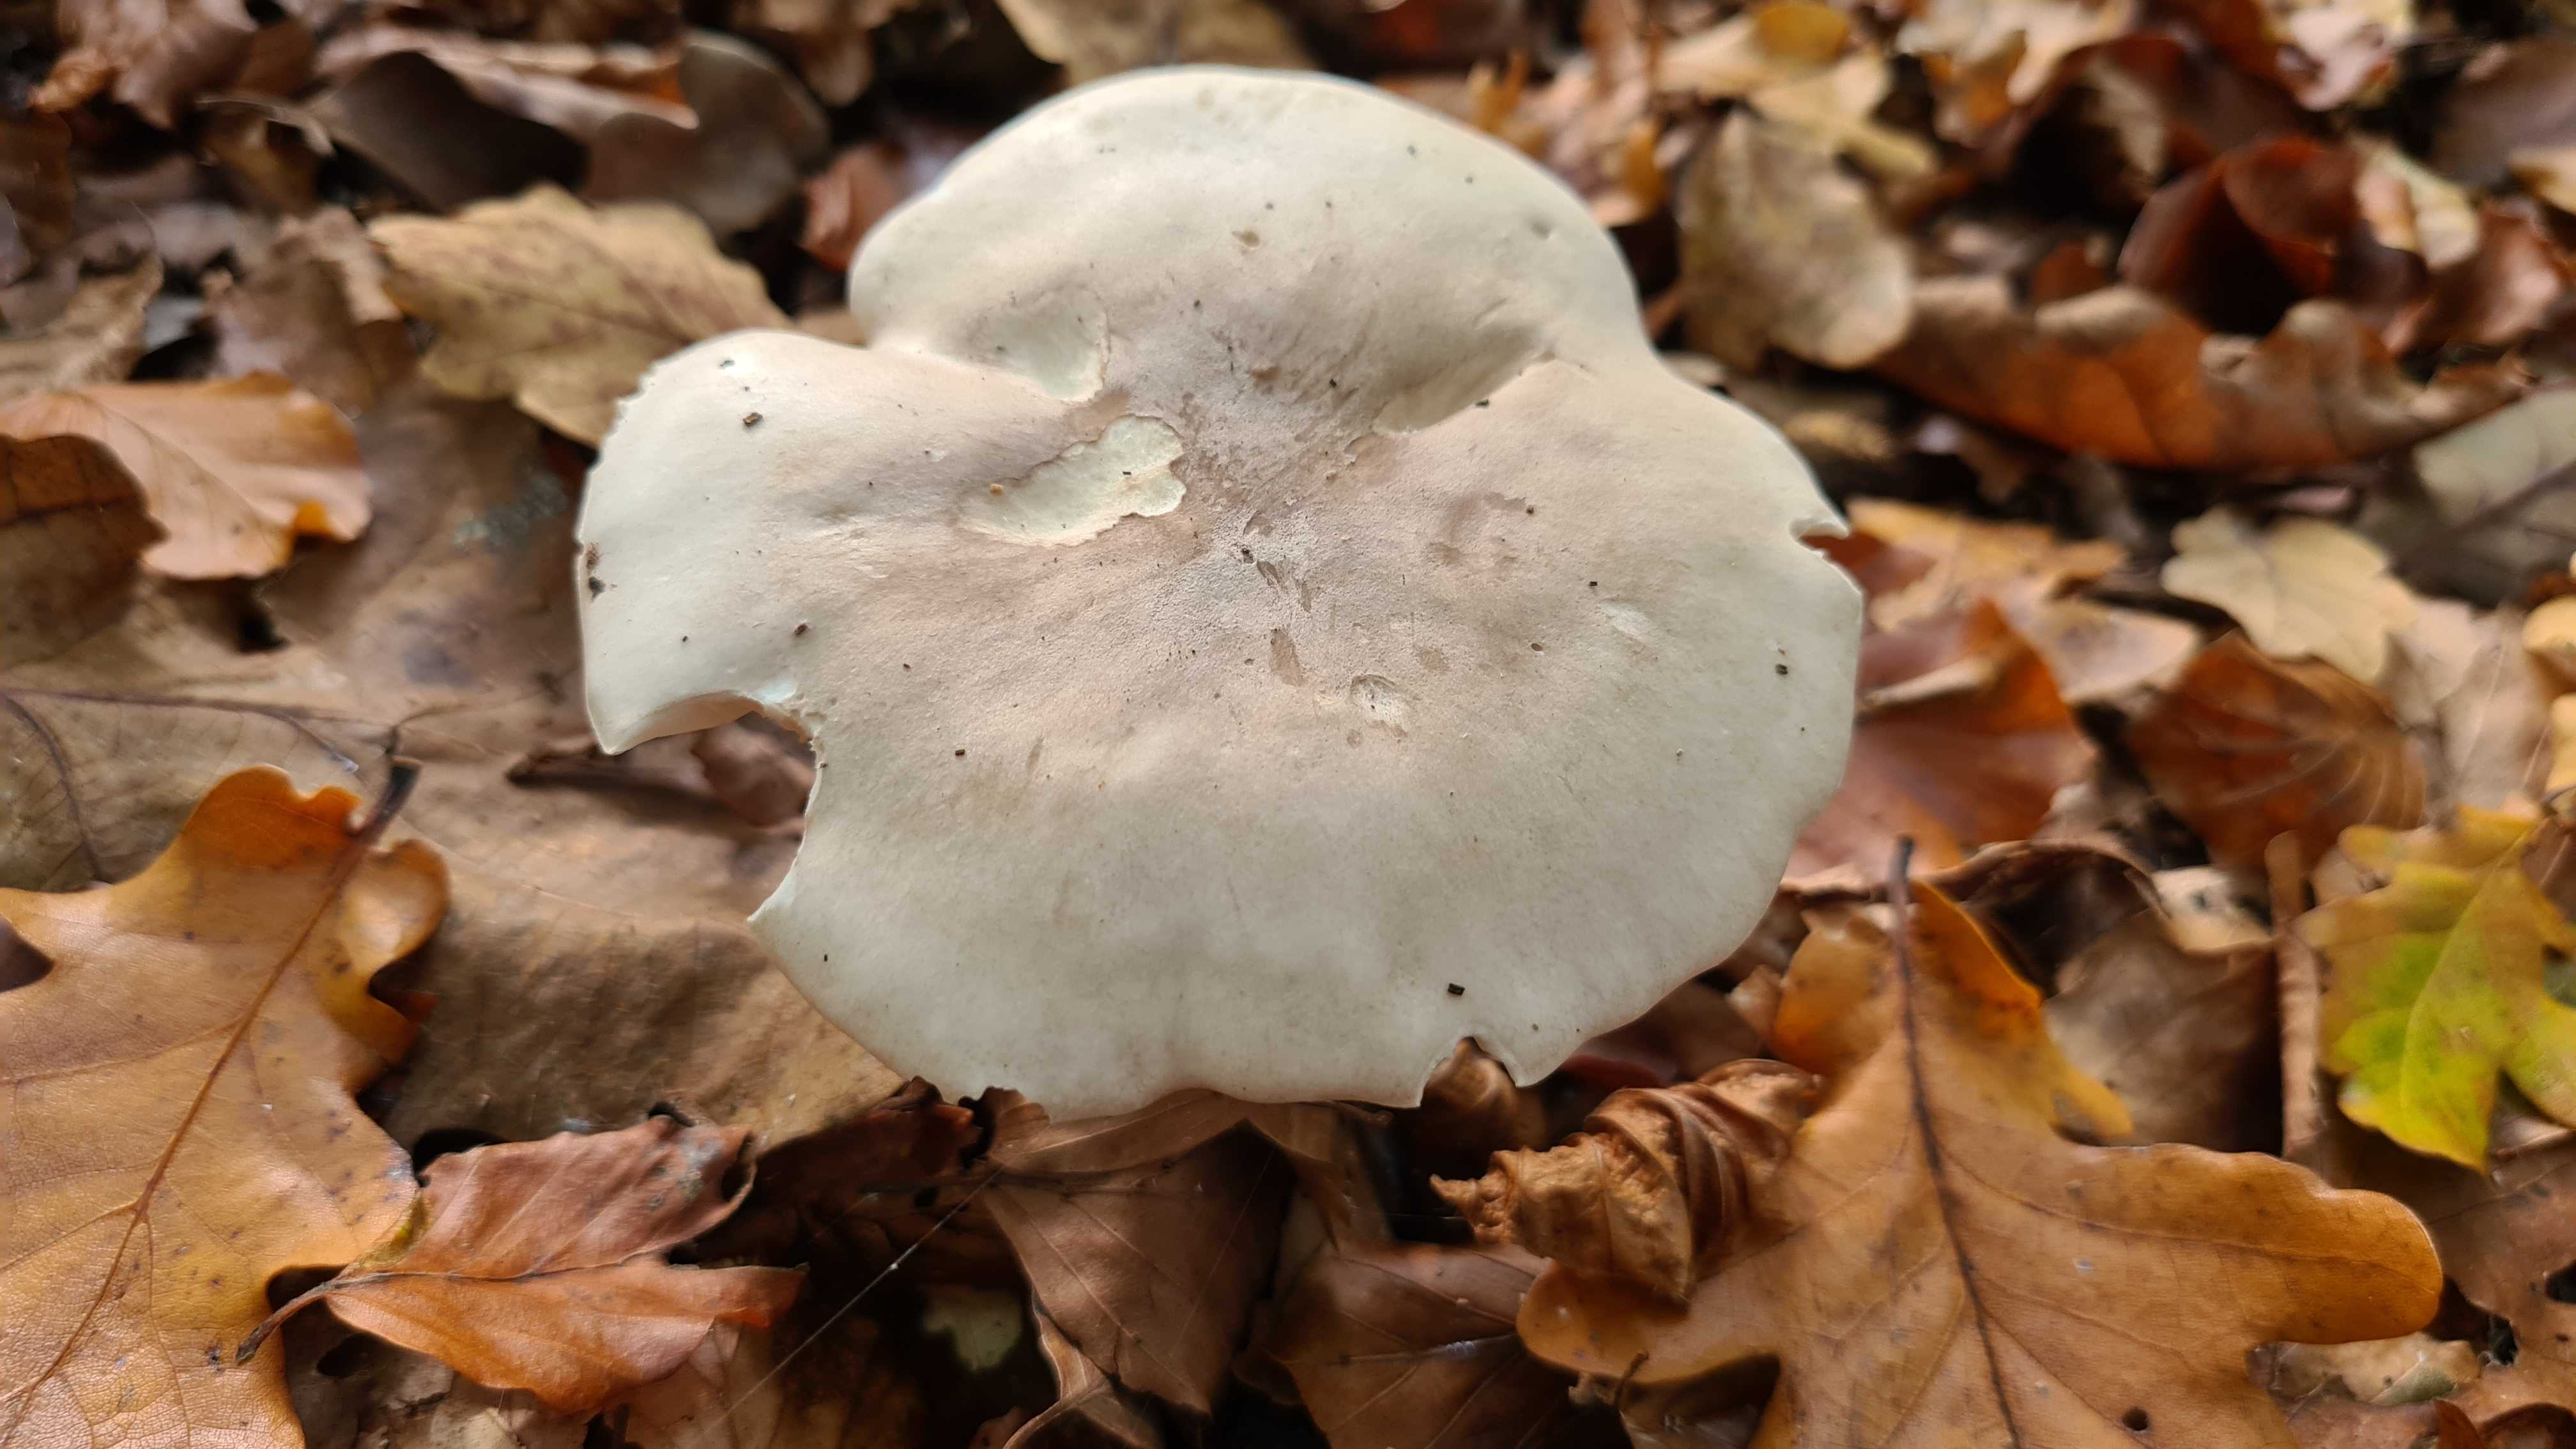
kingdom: Fungi
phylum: Basidiomycota
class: Agaricomycetes
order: Agaricales
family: Tricholomataceae
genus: Clitocybe
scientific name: Clitocybe nebularis
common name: tåge-tragthat
